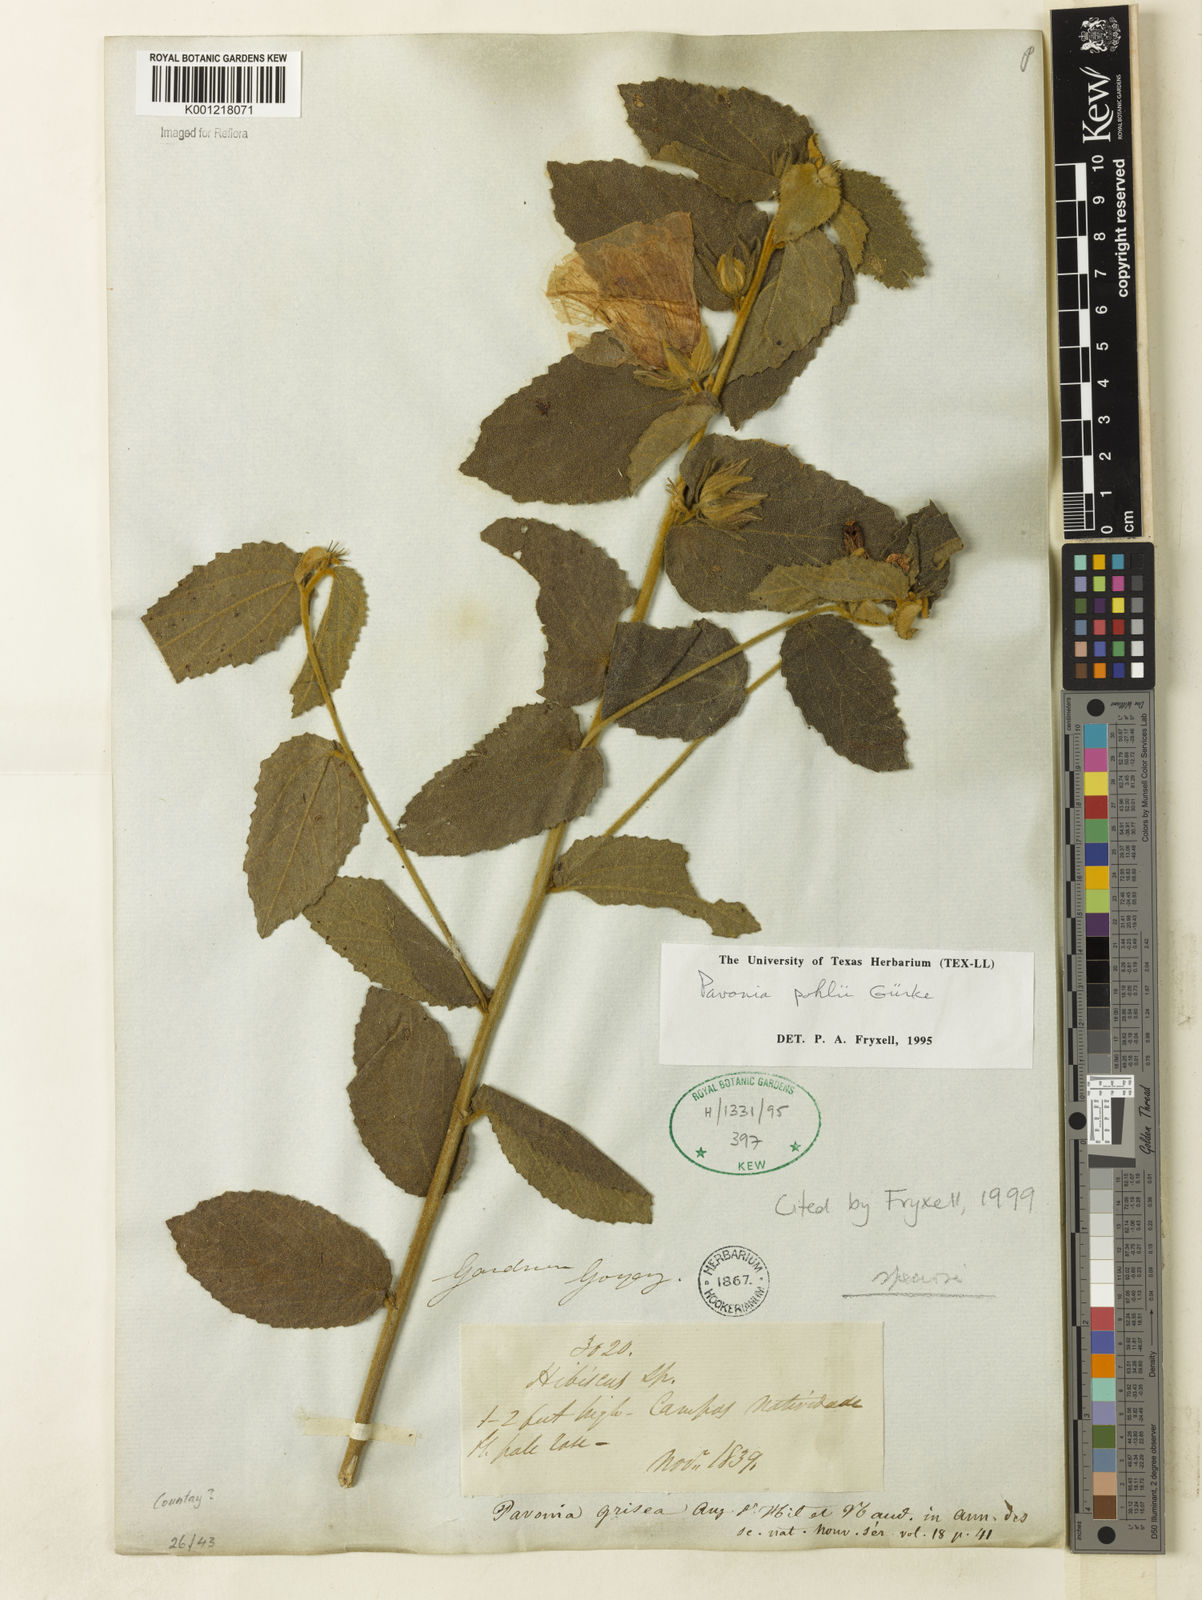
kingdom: Plantae
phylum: Tracheophyta
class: Magnoliopsida
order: Malvales
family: Malvaceae
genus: Pavonia
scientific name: Pavonia
